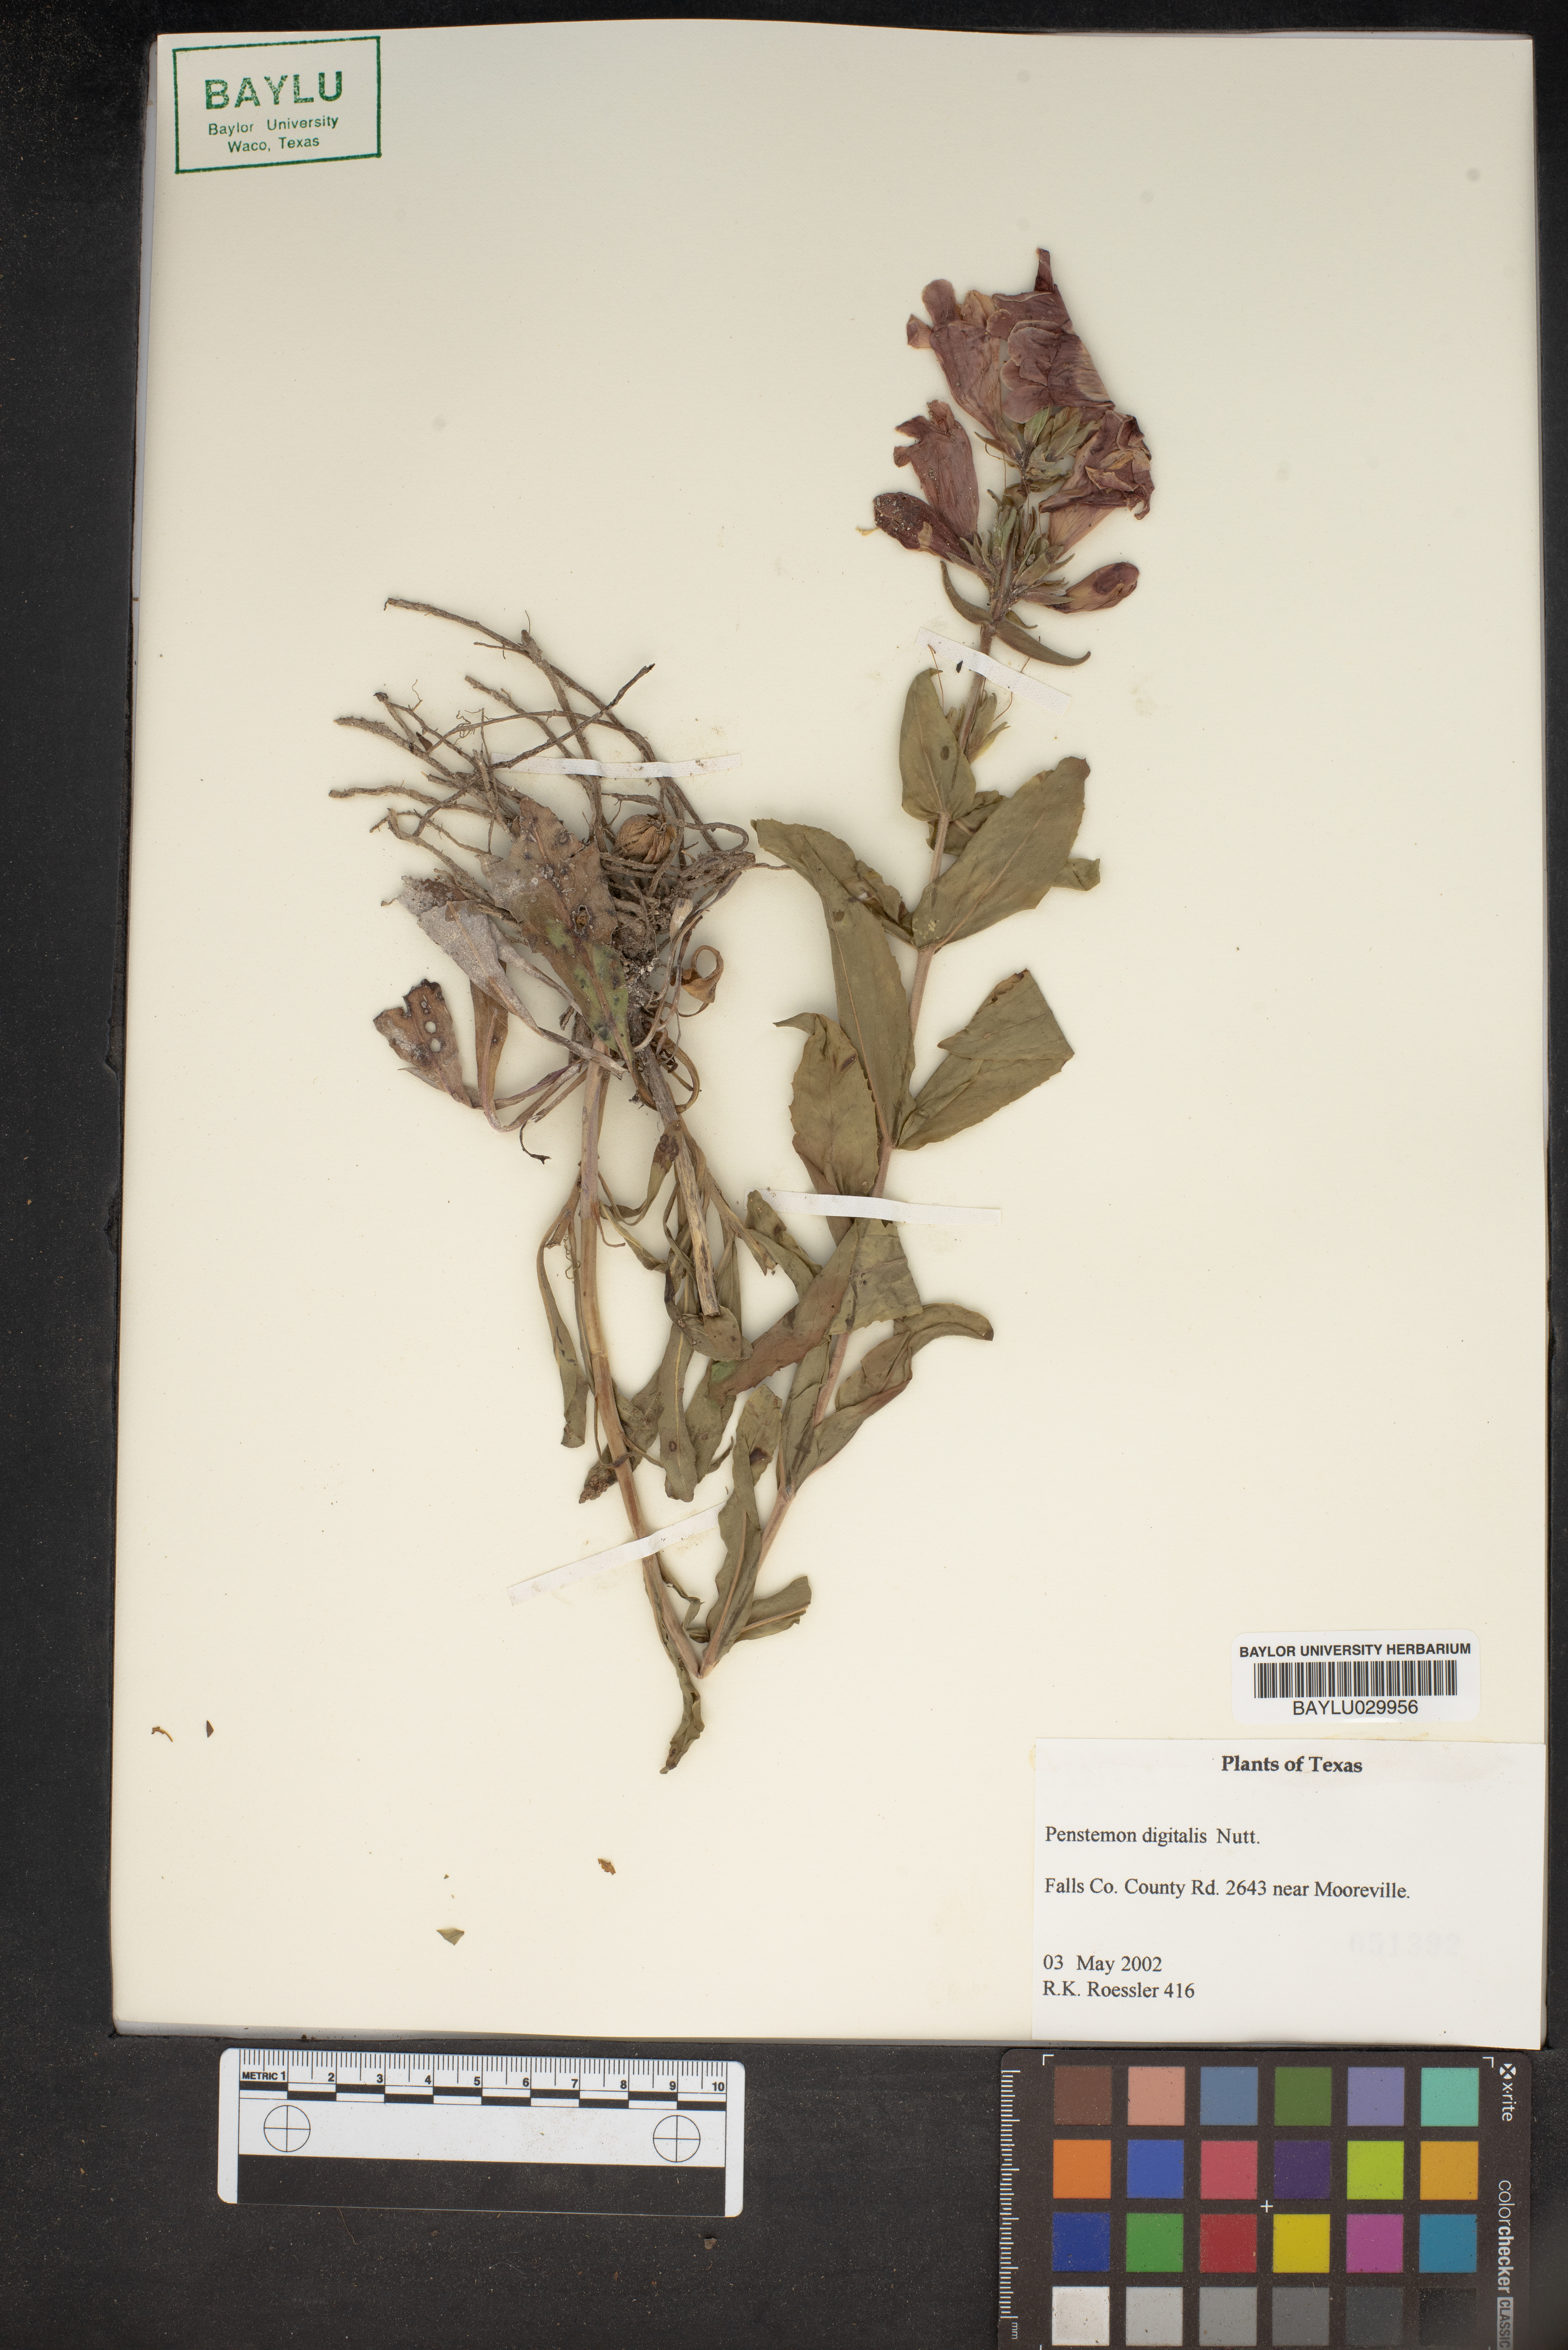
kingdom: Plantae
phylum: Tracheophyta
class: Magnoliopsida
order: Lamiales
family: Plantaginaceae
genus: Penstemon
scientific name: Penstemon digitalis
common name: Foxglove beardtongue
